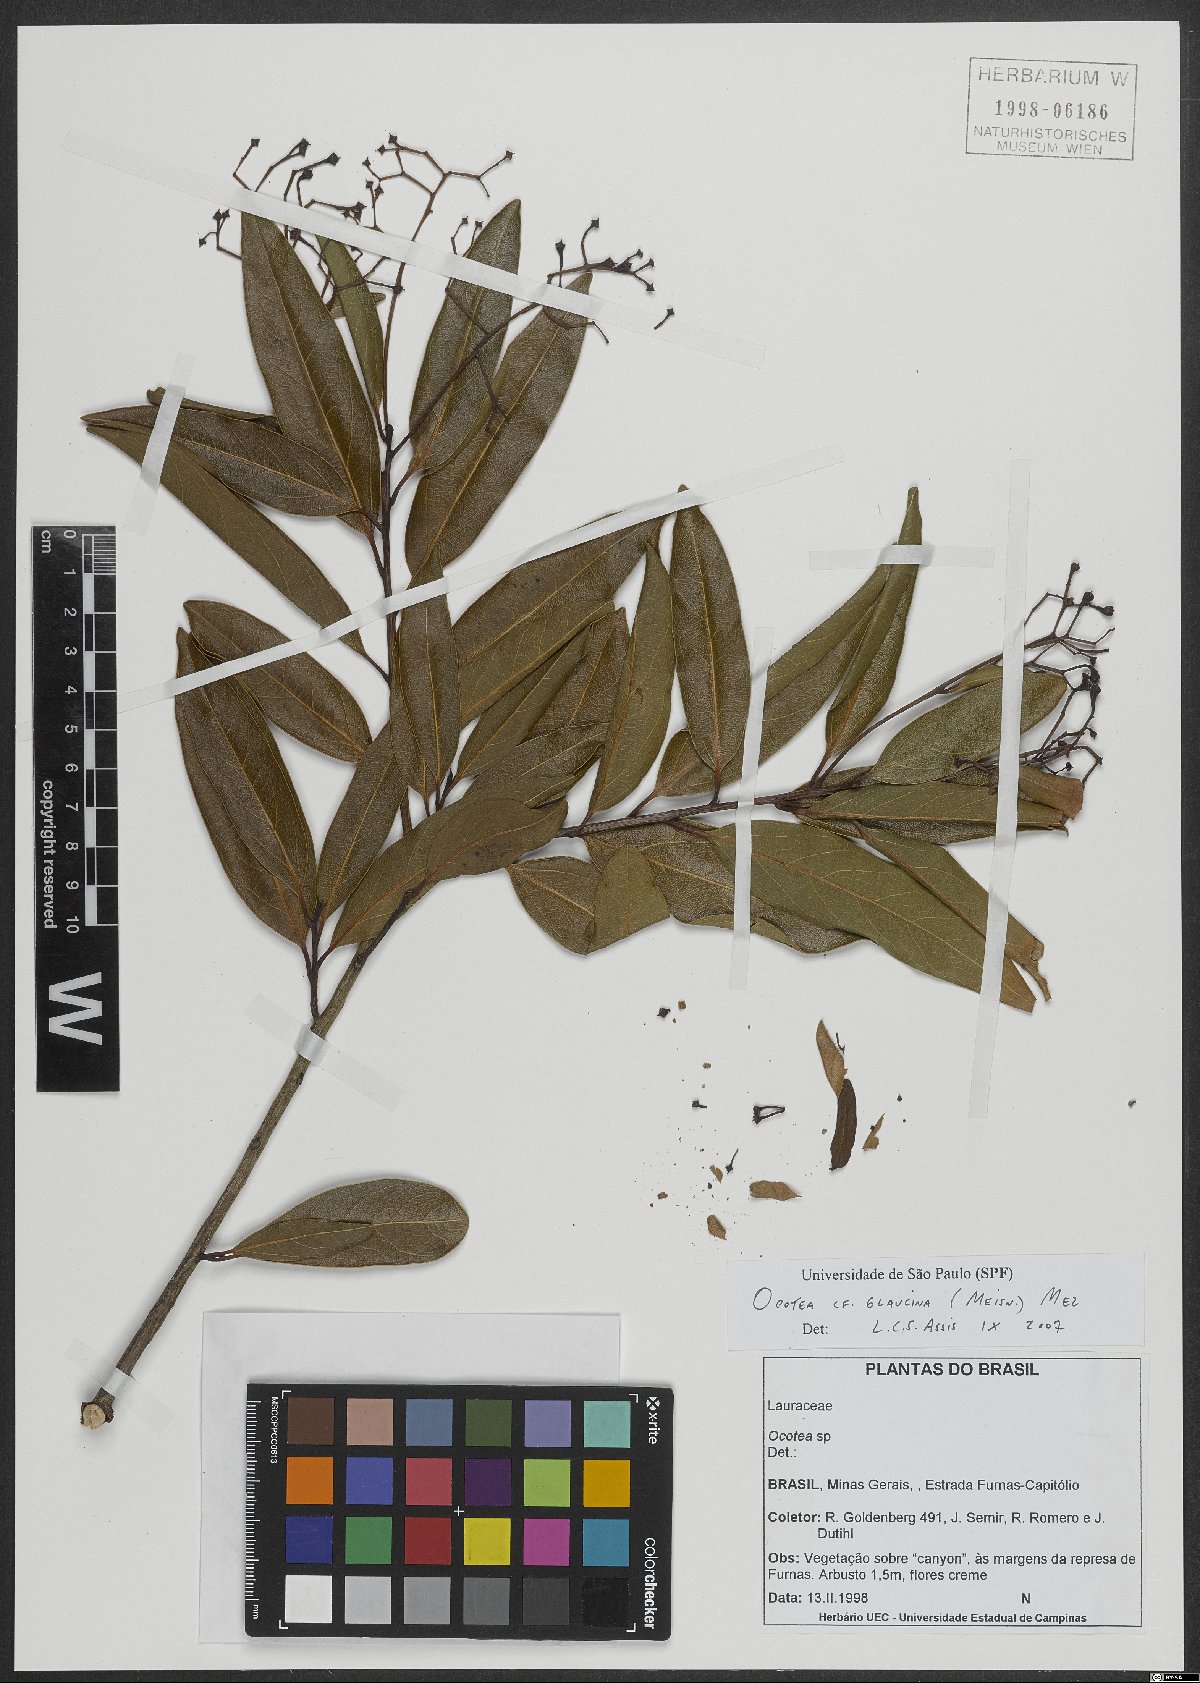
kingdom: Plantae
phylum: Tracheophyta
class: Magnoliopsida
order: Laurales
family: Lauraceae
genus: Mespilodaphne
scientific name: Mespilodaphne notata
